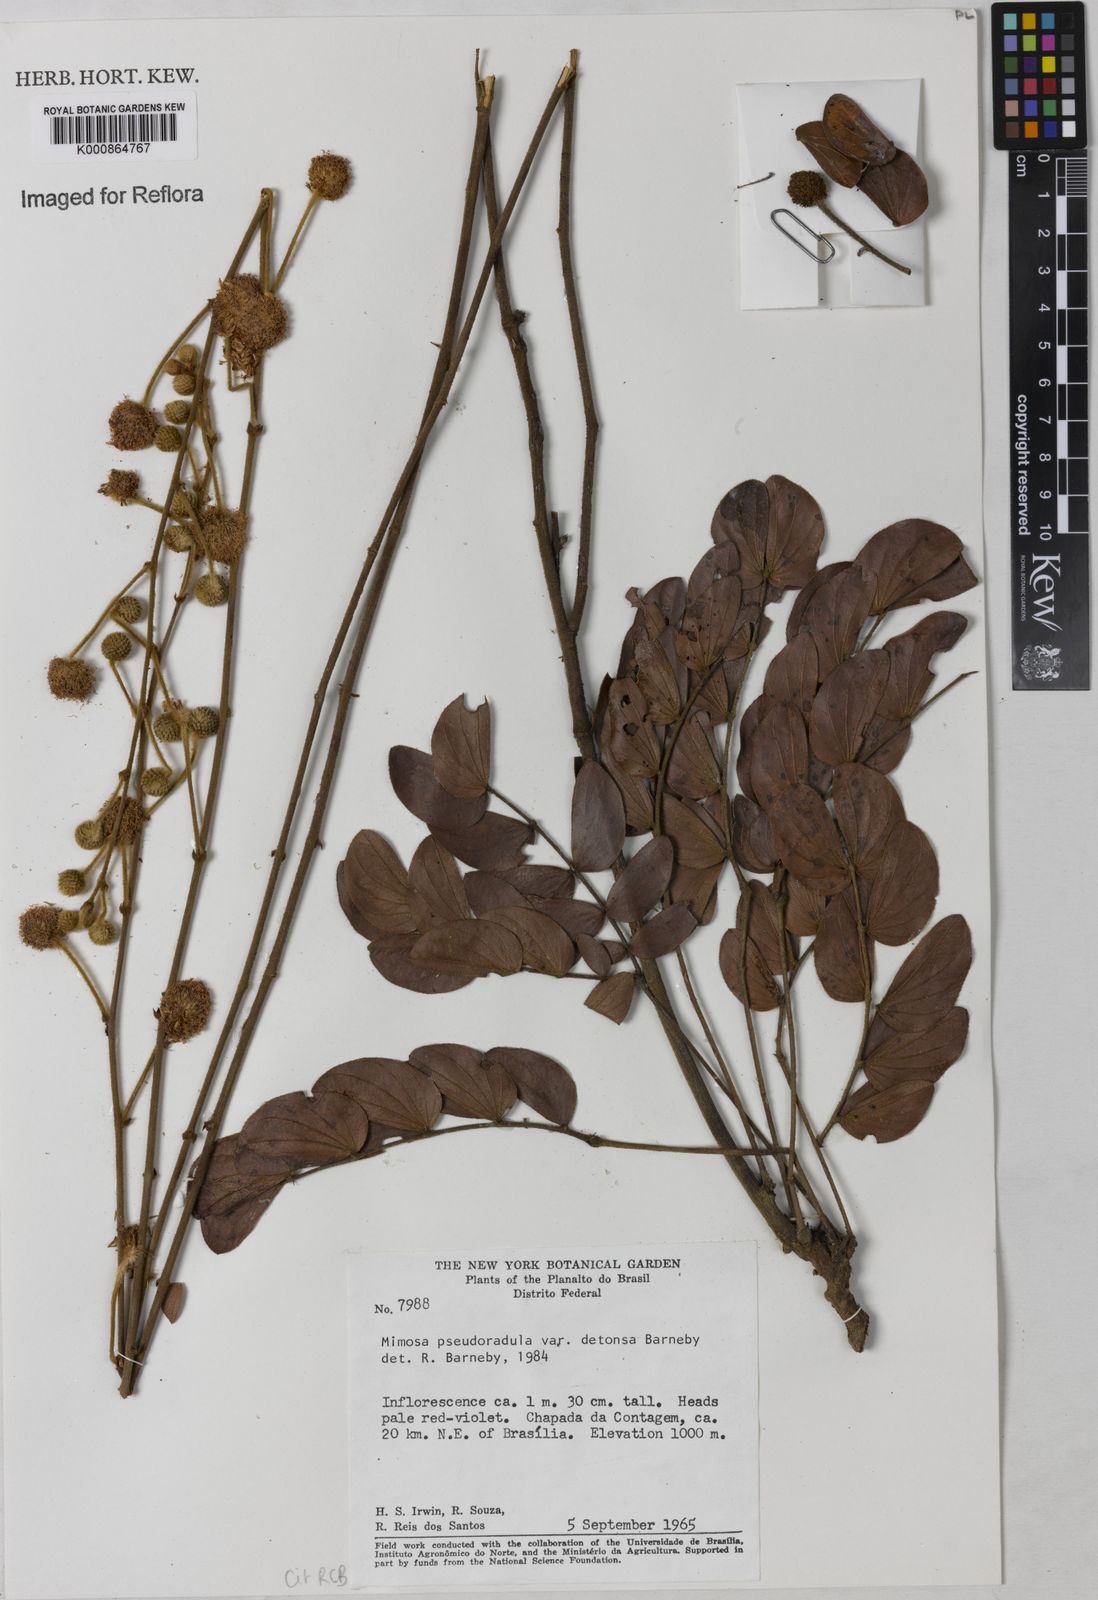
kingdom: Plantae
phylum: Tracheophyta
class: Magnoliopsida
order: Fabales
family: Fabaceae
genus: Mimosa
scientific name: Mimosa pseudoradula
